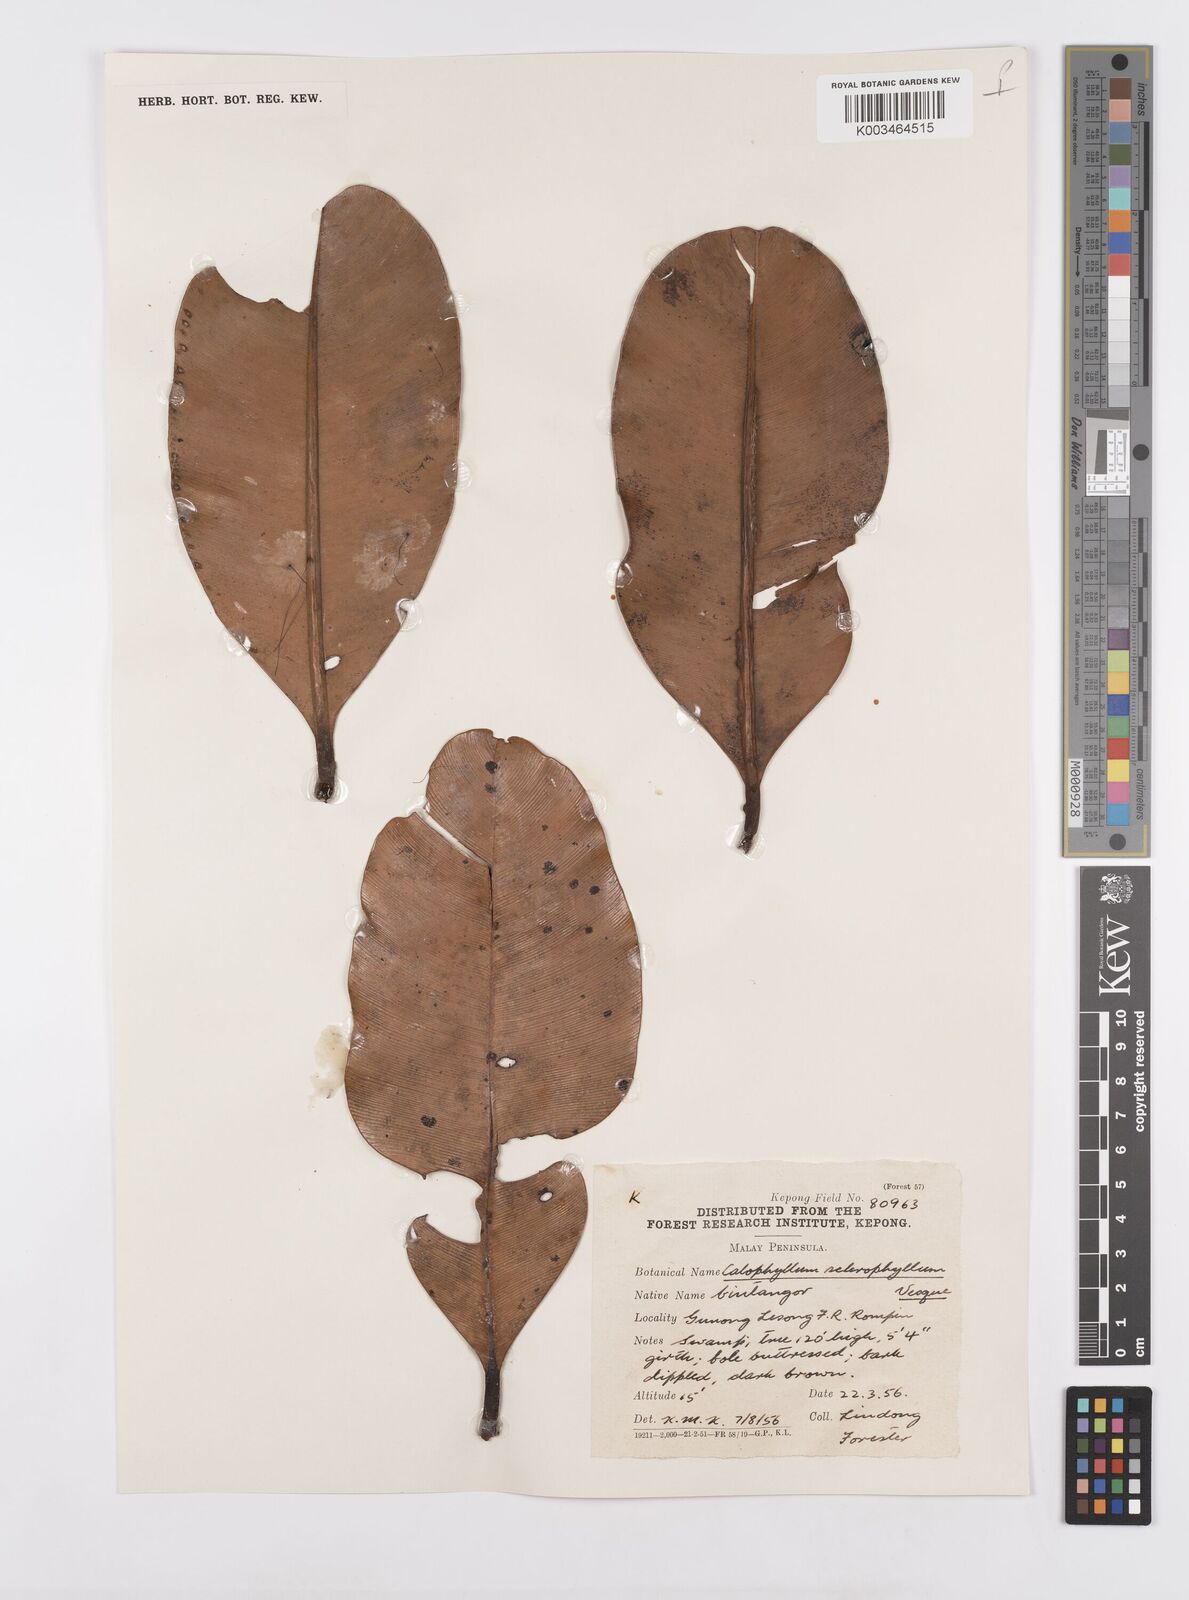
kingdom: Plantae
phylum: Tracheophyta
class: Magnoliopsida
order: Malpighiales
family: Calophyllaceae
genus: Calophyllum
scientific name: Calophyllum sclerophyllum
